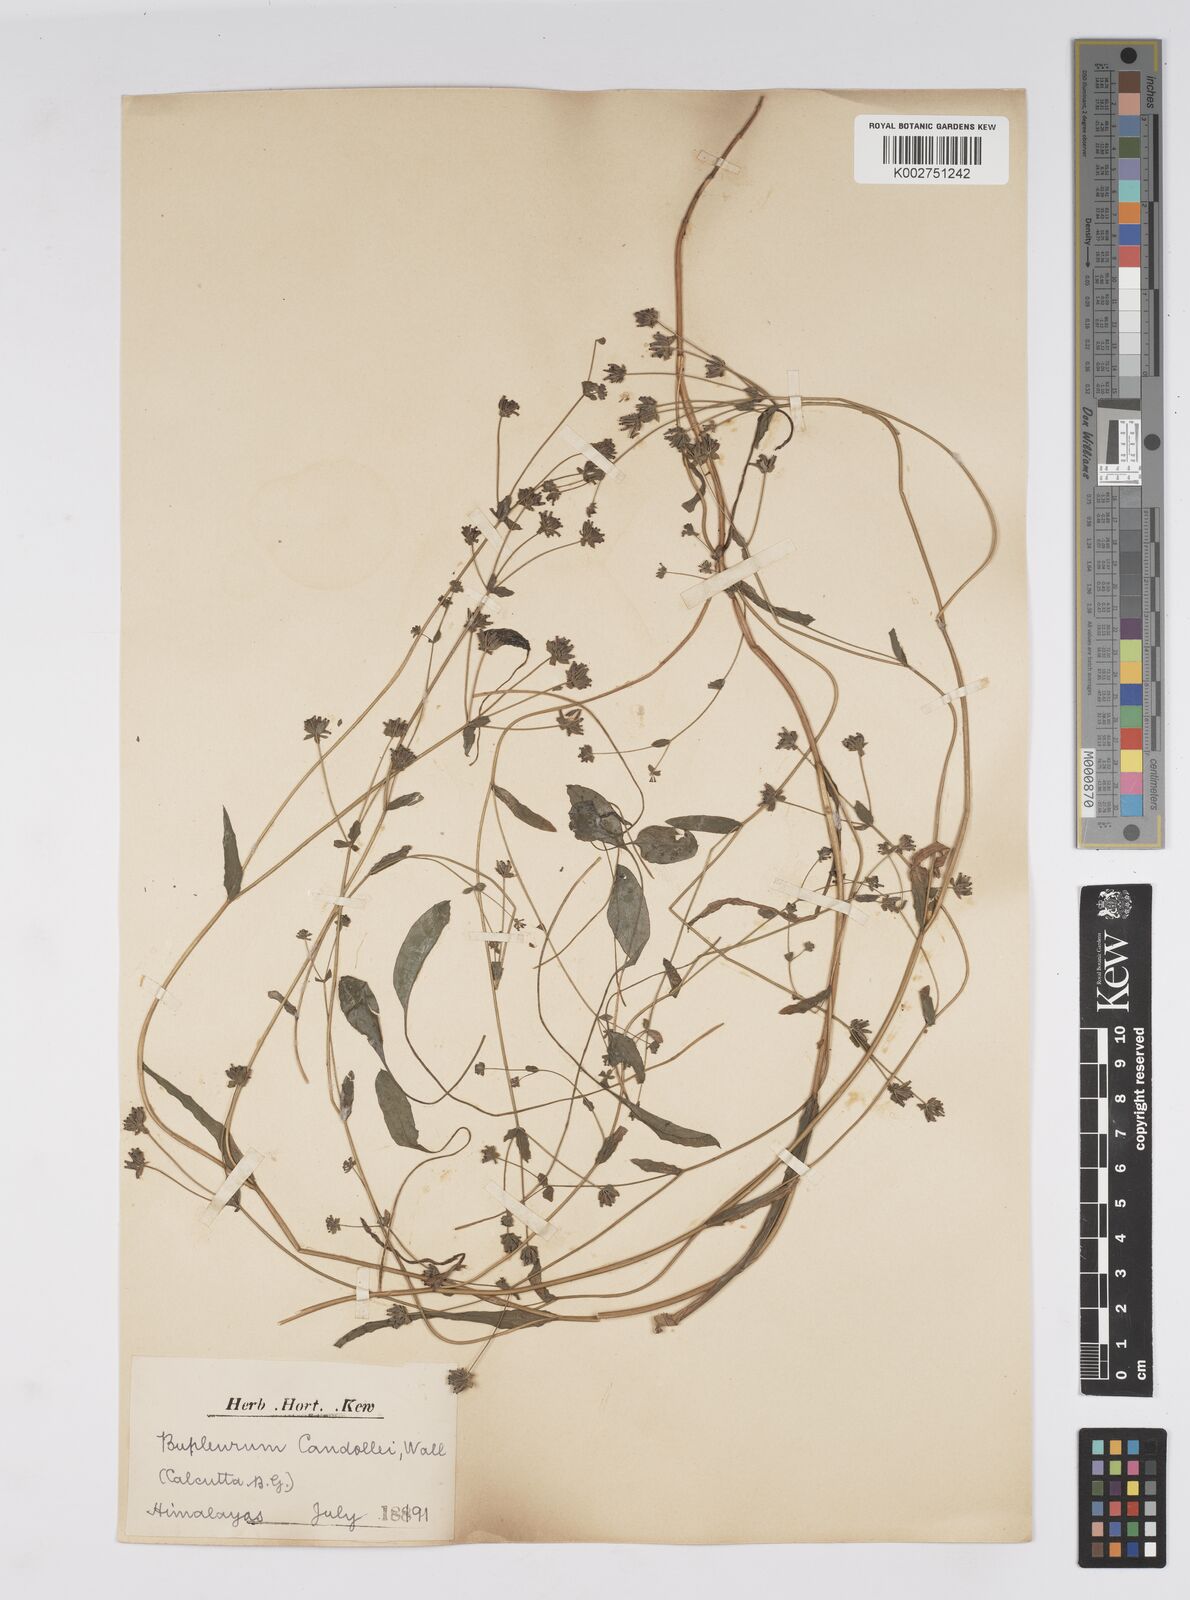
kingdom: Plantae
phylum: Tracheophyta
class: Magnoliopsida
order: Apiales
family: Apiaceae
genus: Bupleurum
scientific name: Bupleurum candollei
